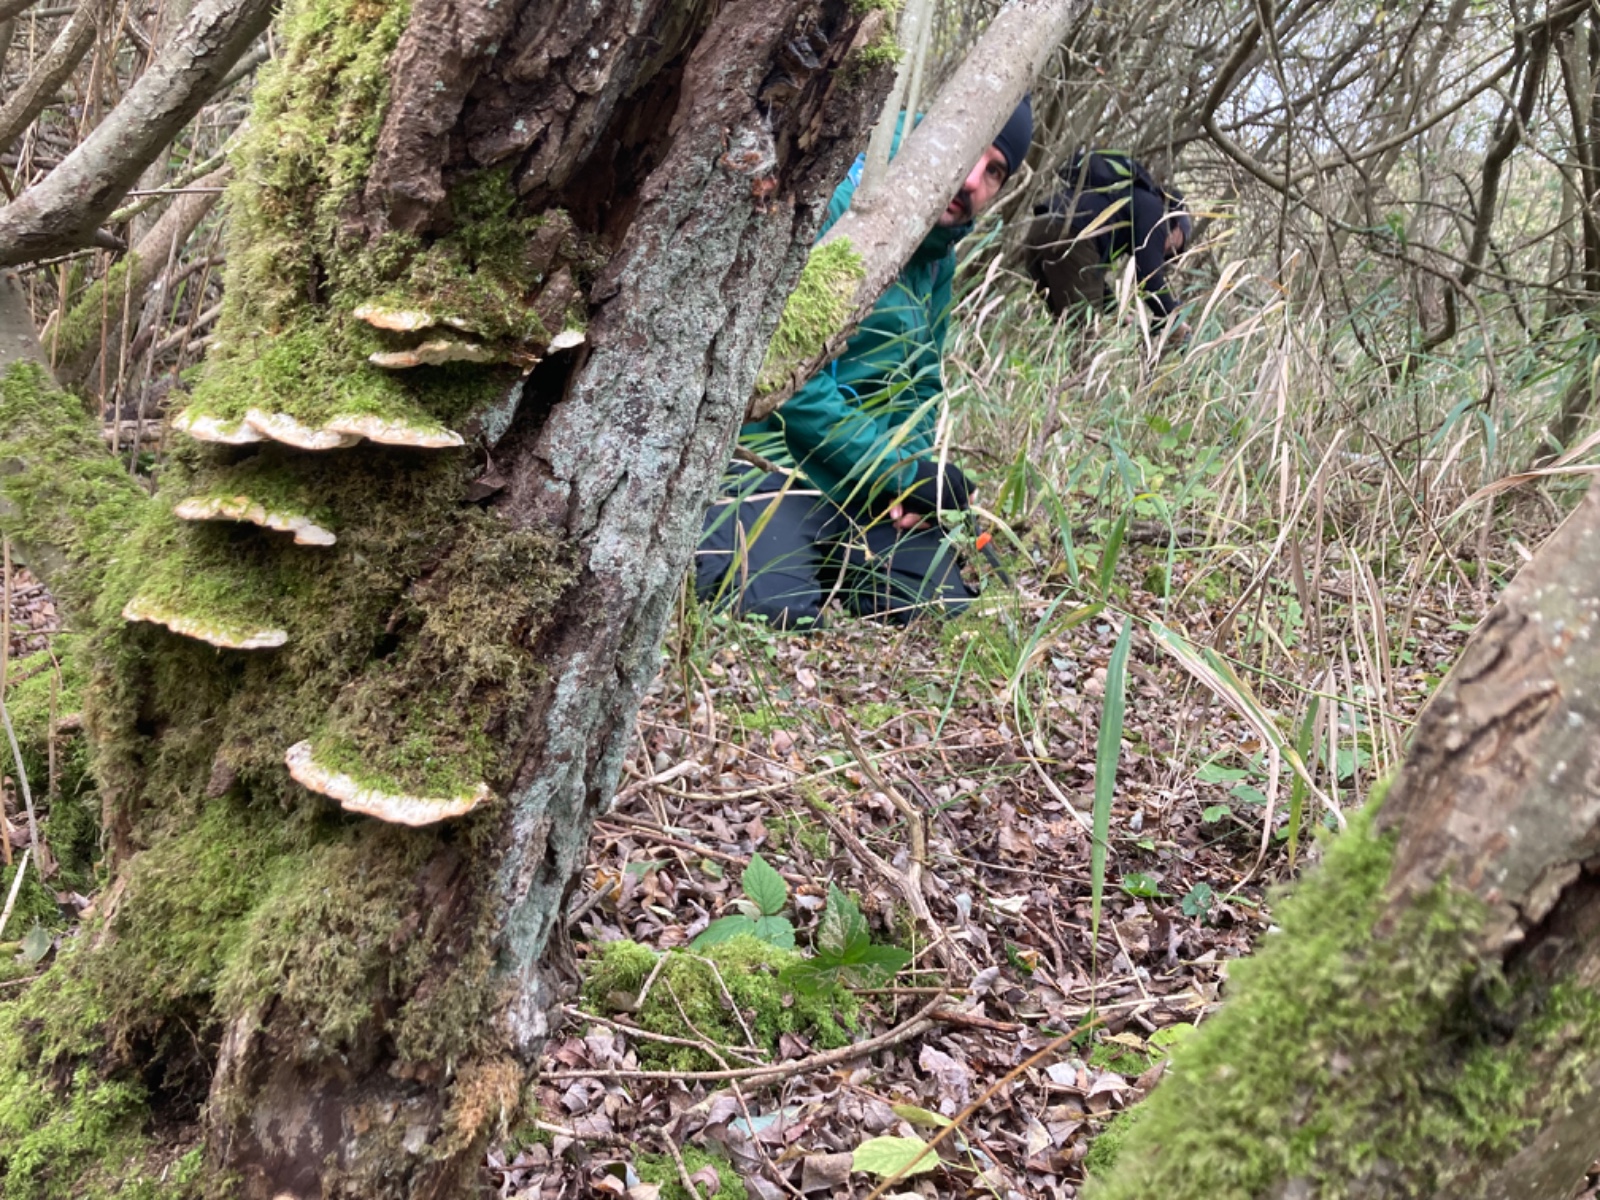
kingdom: Fungi
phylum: Basidiomycota
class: Agaricomycetes
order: Hymenochaetales
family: Oxyporaceae
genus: Oxyporus
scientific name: Oxyporus populinus
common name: sammenvokset trylleporesvamp
